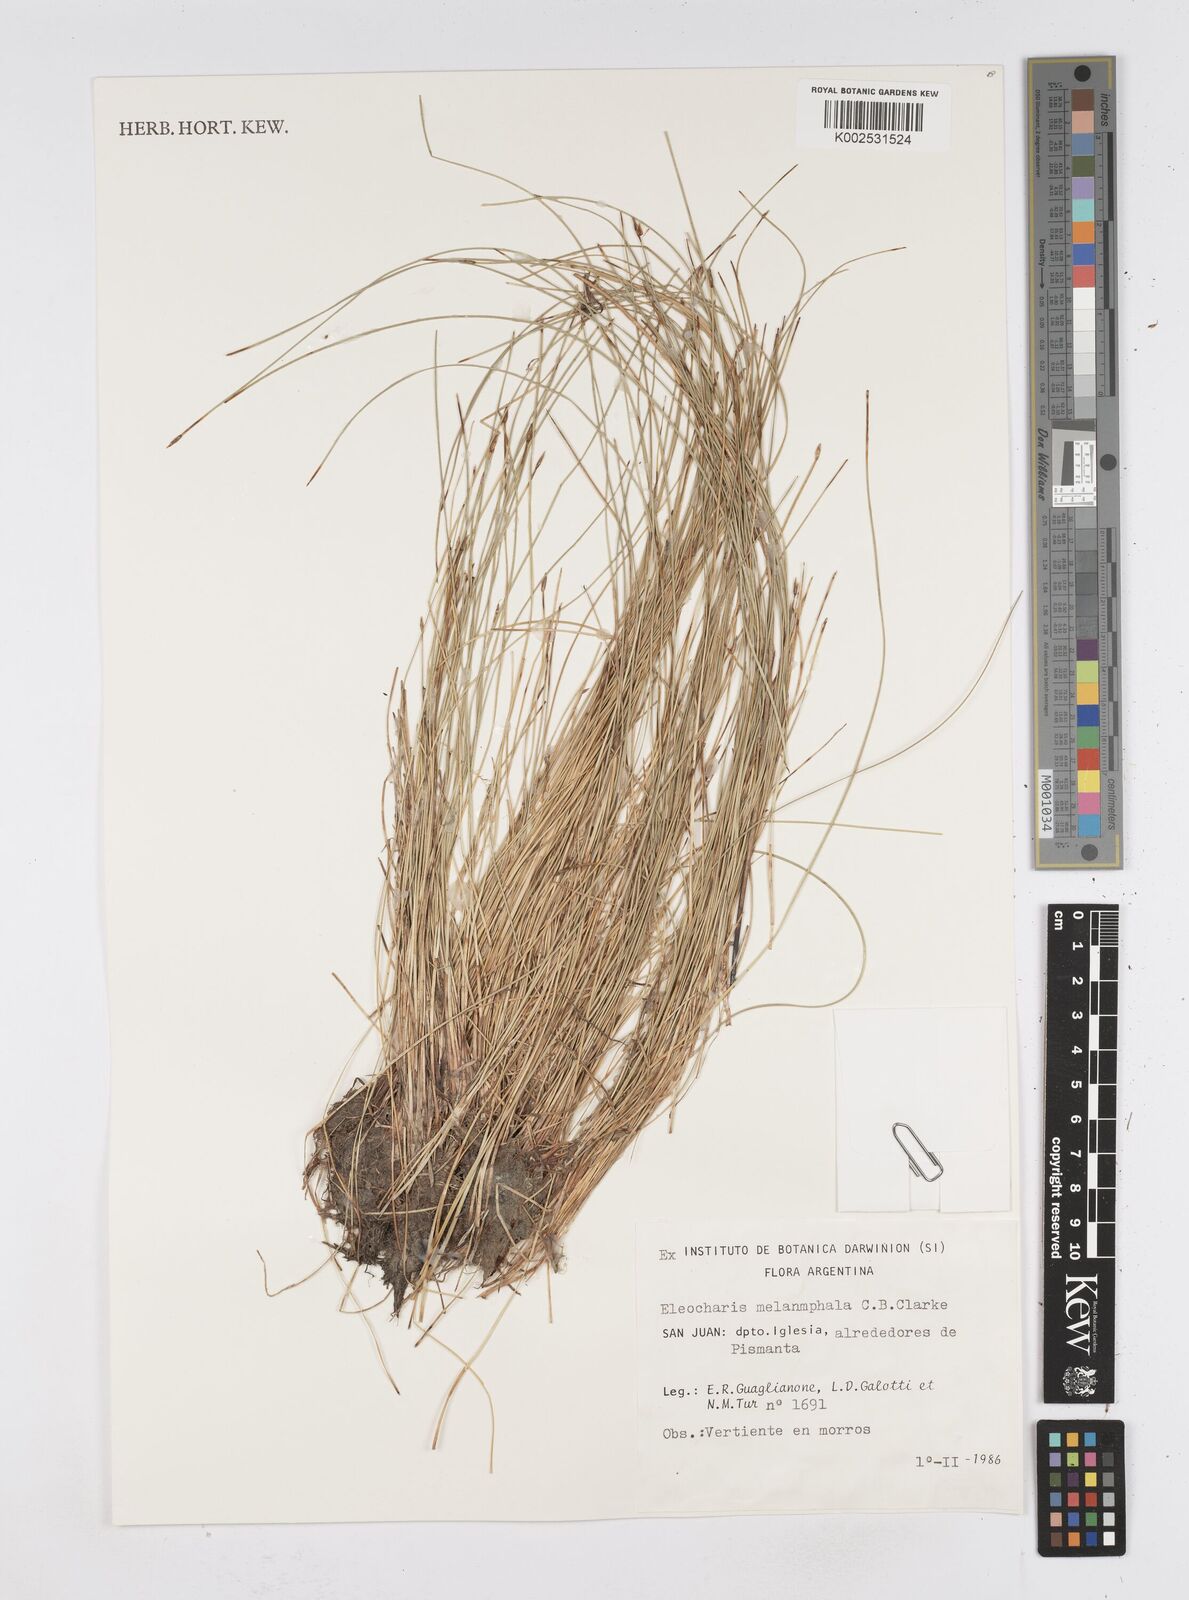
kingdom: Plantae
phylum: Tracheophyta
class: Liliopsida
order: Poales
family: Cyperaceae
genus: Eleocharis
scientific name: Eleocharis albibracteata
